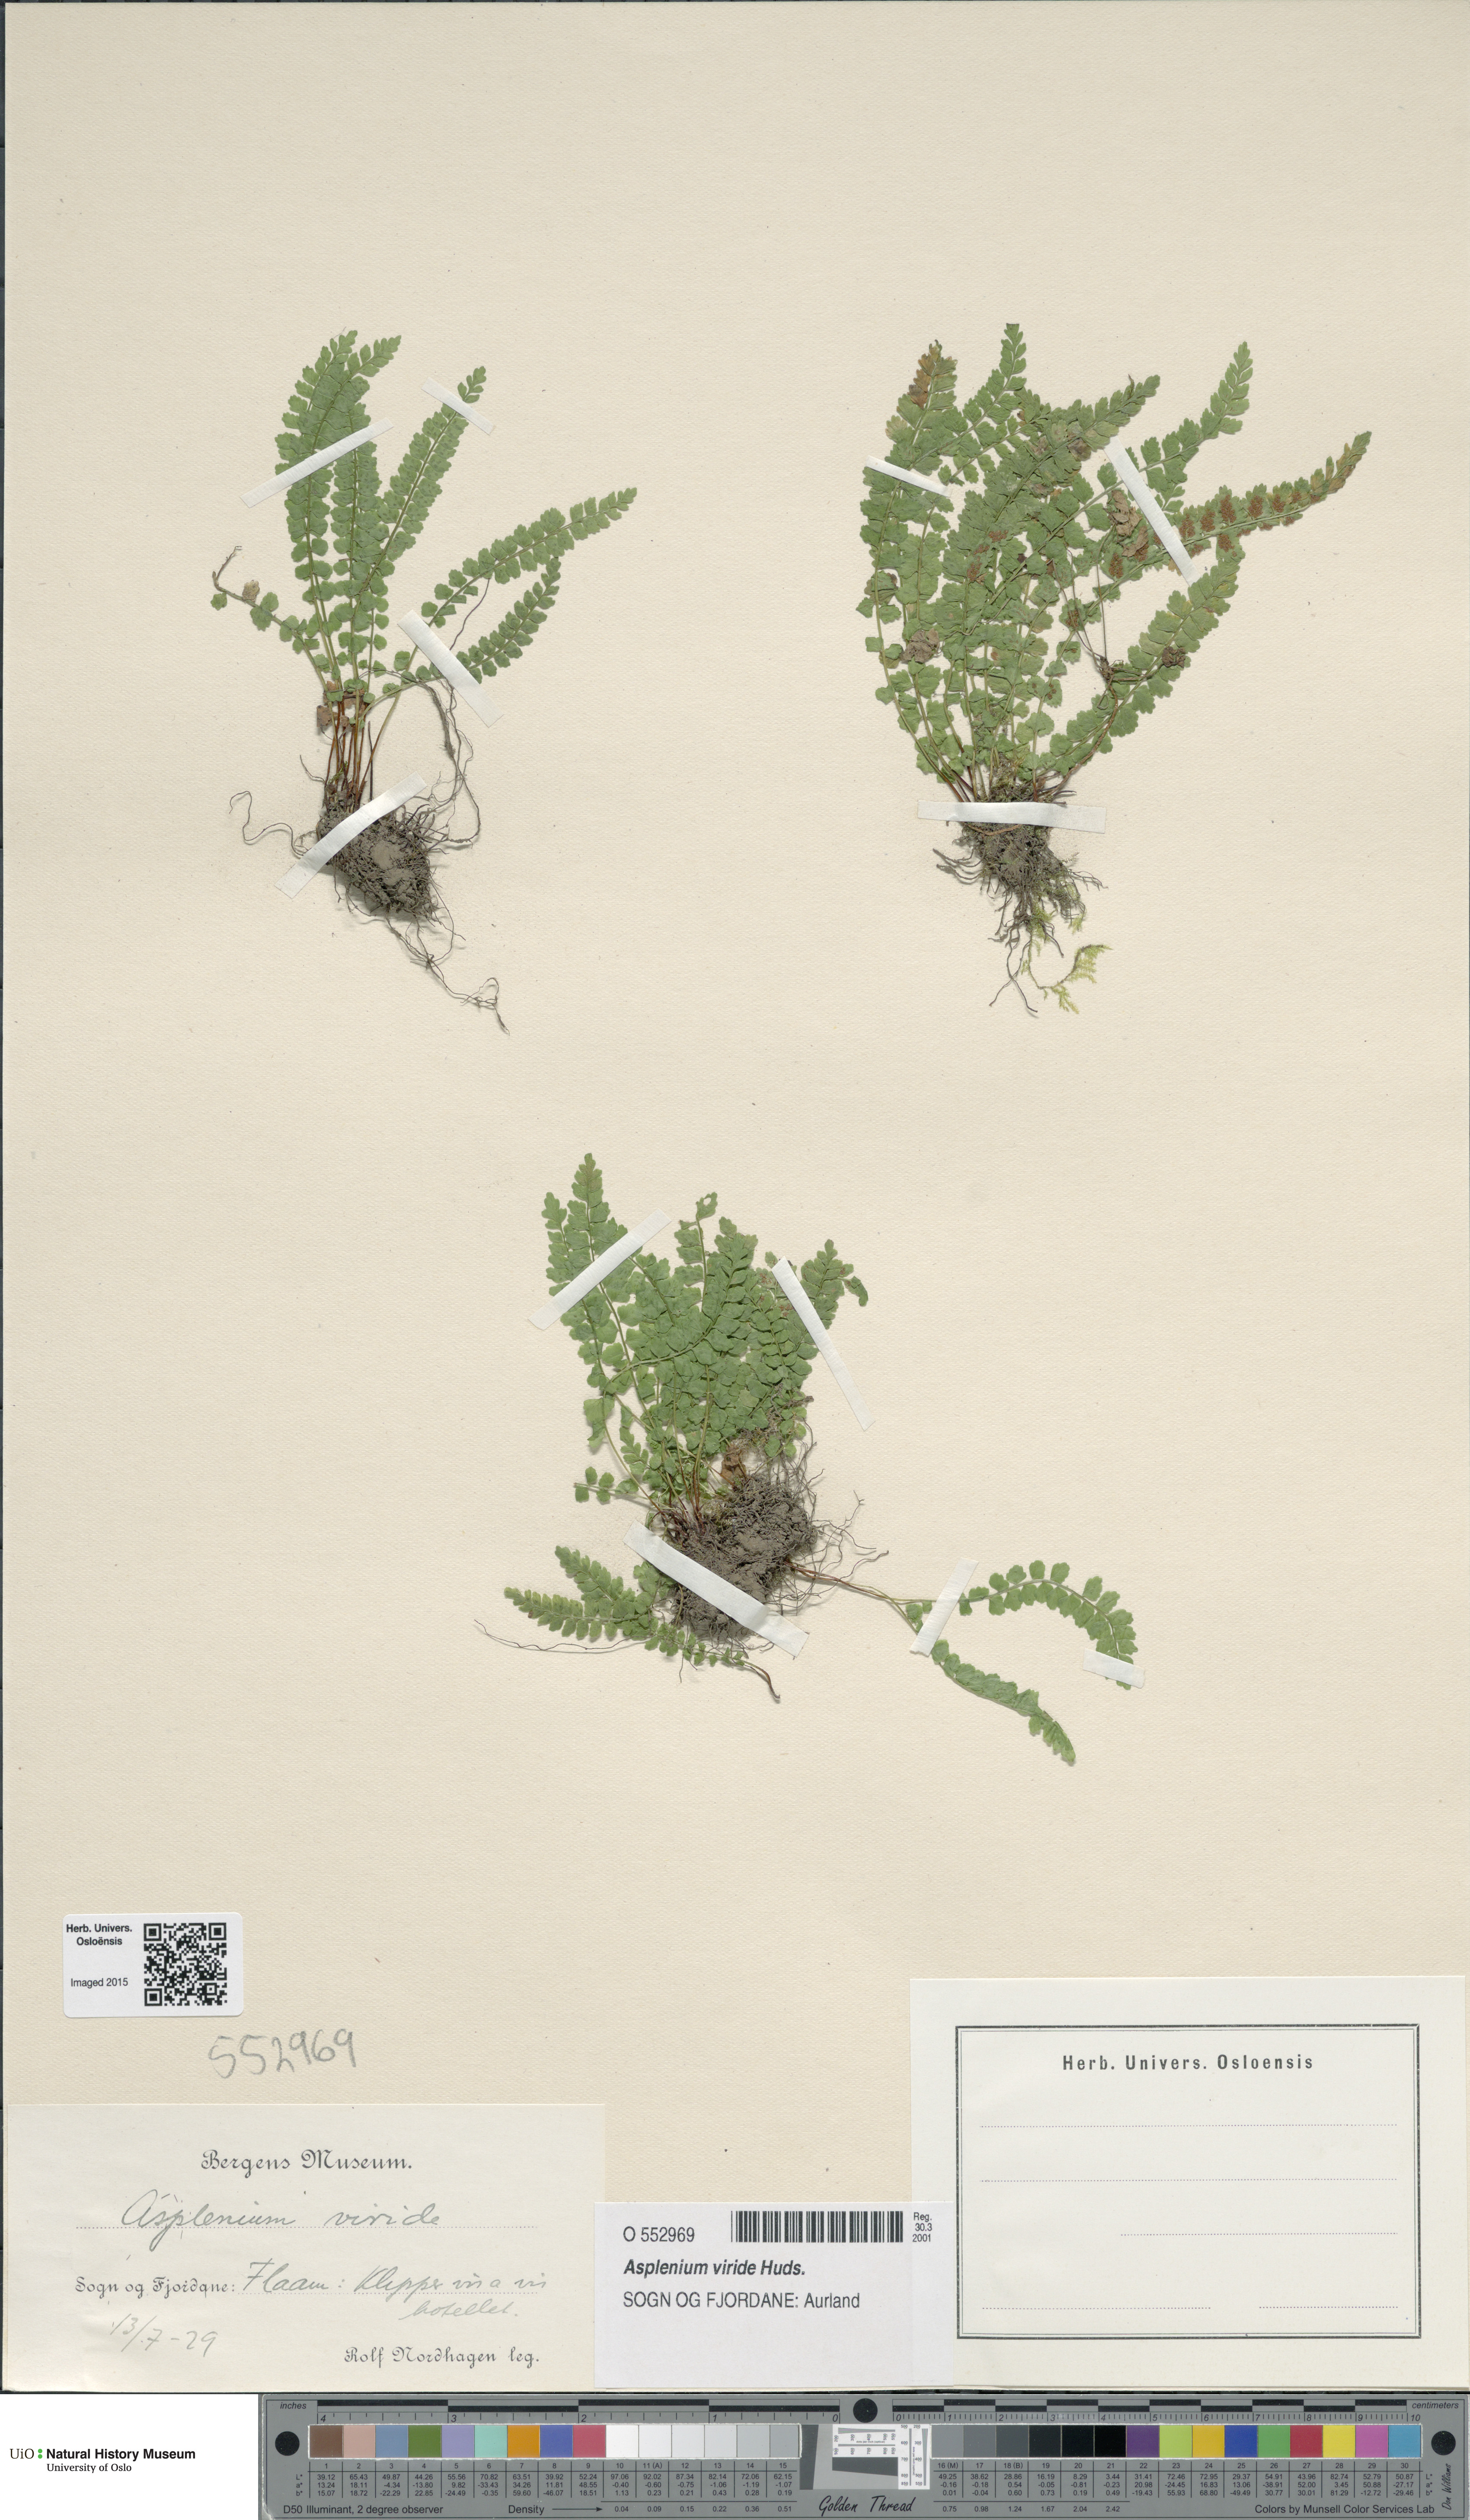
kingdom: Plantae
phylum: Tracheophyta
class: Polypodiopsida
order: Polypodiales
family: Aspleniaceae
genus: Asplenium
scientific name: Asplenium viride
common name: Green spleenwort
